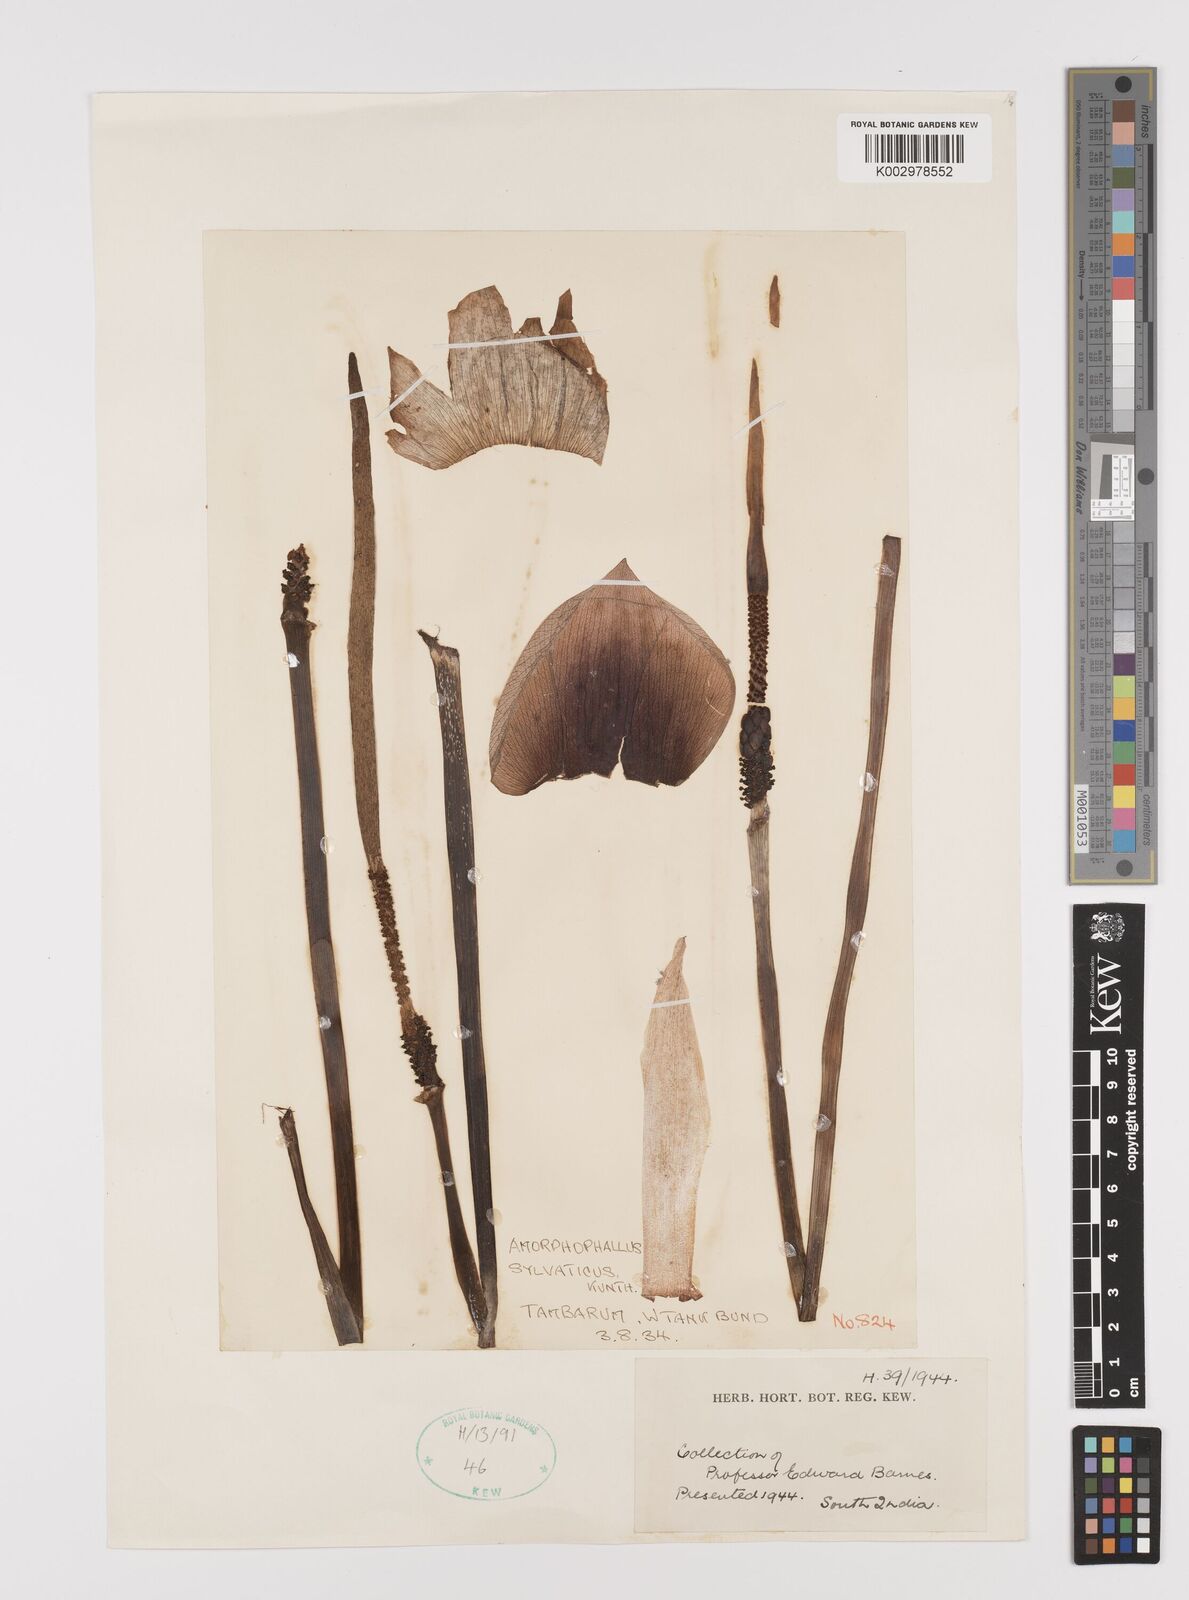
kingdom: Plantae
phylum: Tracheophyta
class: Liliopsida
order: Alismatales
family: Araceae
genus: Amorphophallus
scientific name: Amorphophallus sylvaticus
